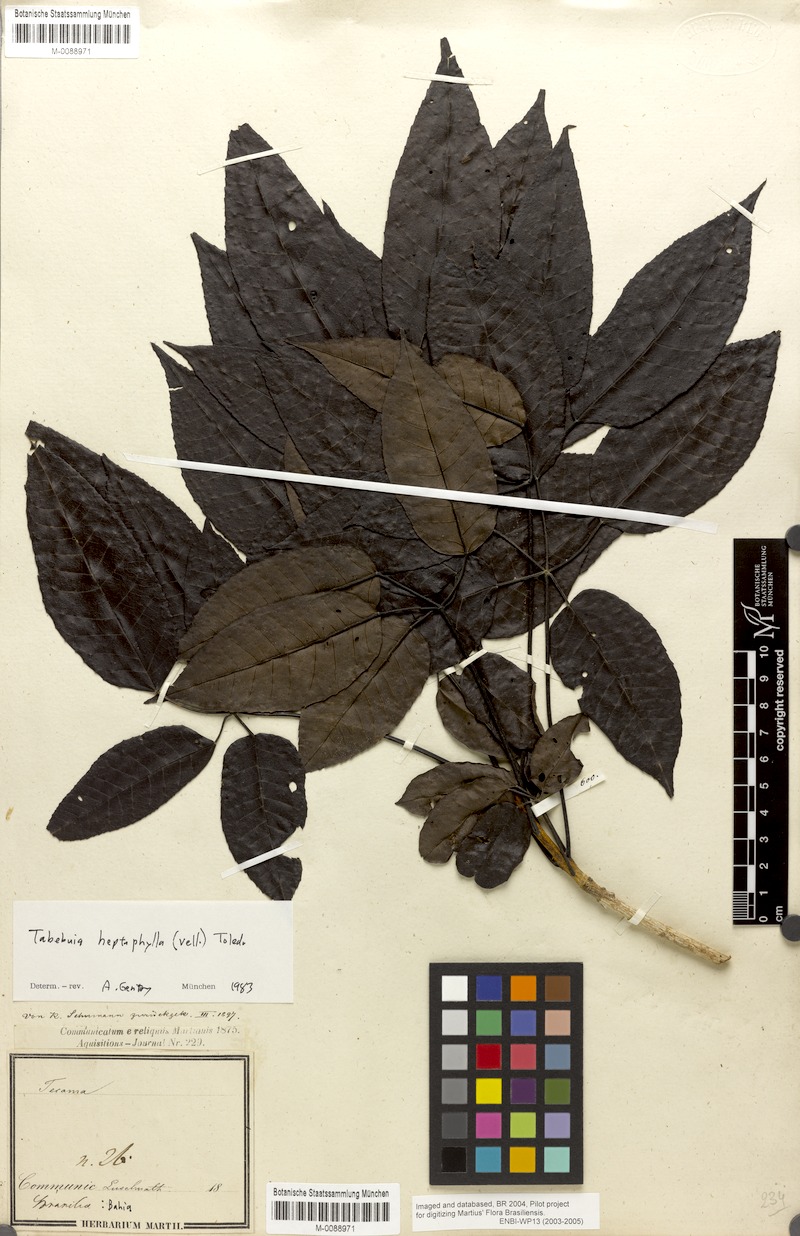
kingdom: Plantae
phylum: Tracheophyta
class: Magnoliopsida
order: Lamiales
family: Bignoniaceae
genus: Handroanthus
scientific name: Handroanthus heptaphyllus
